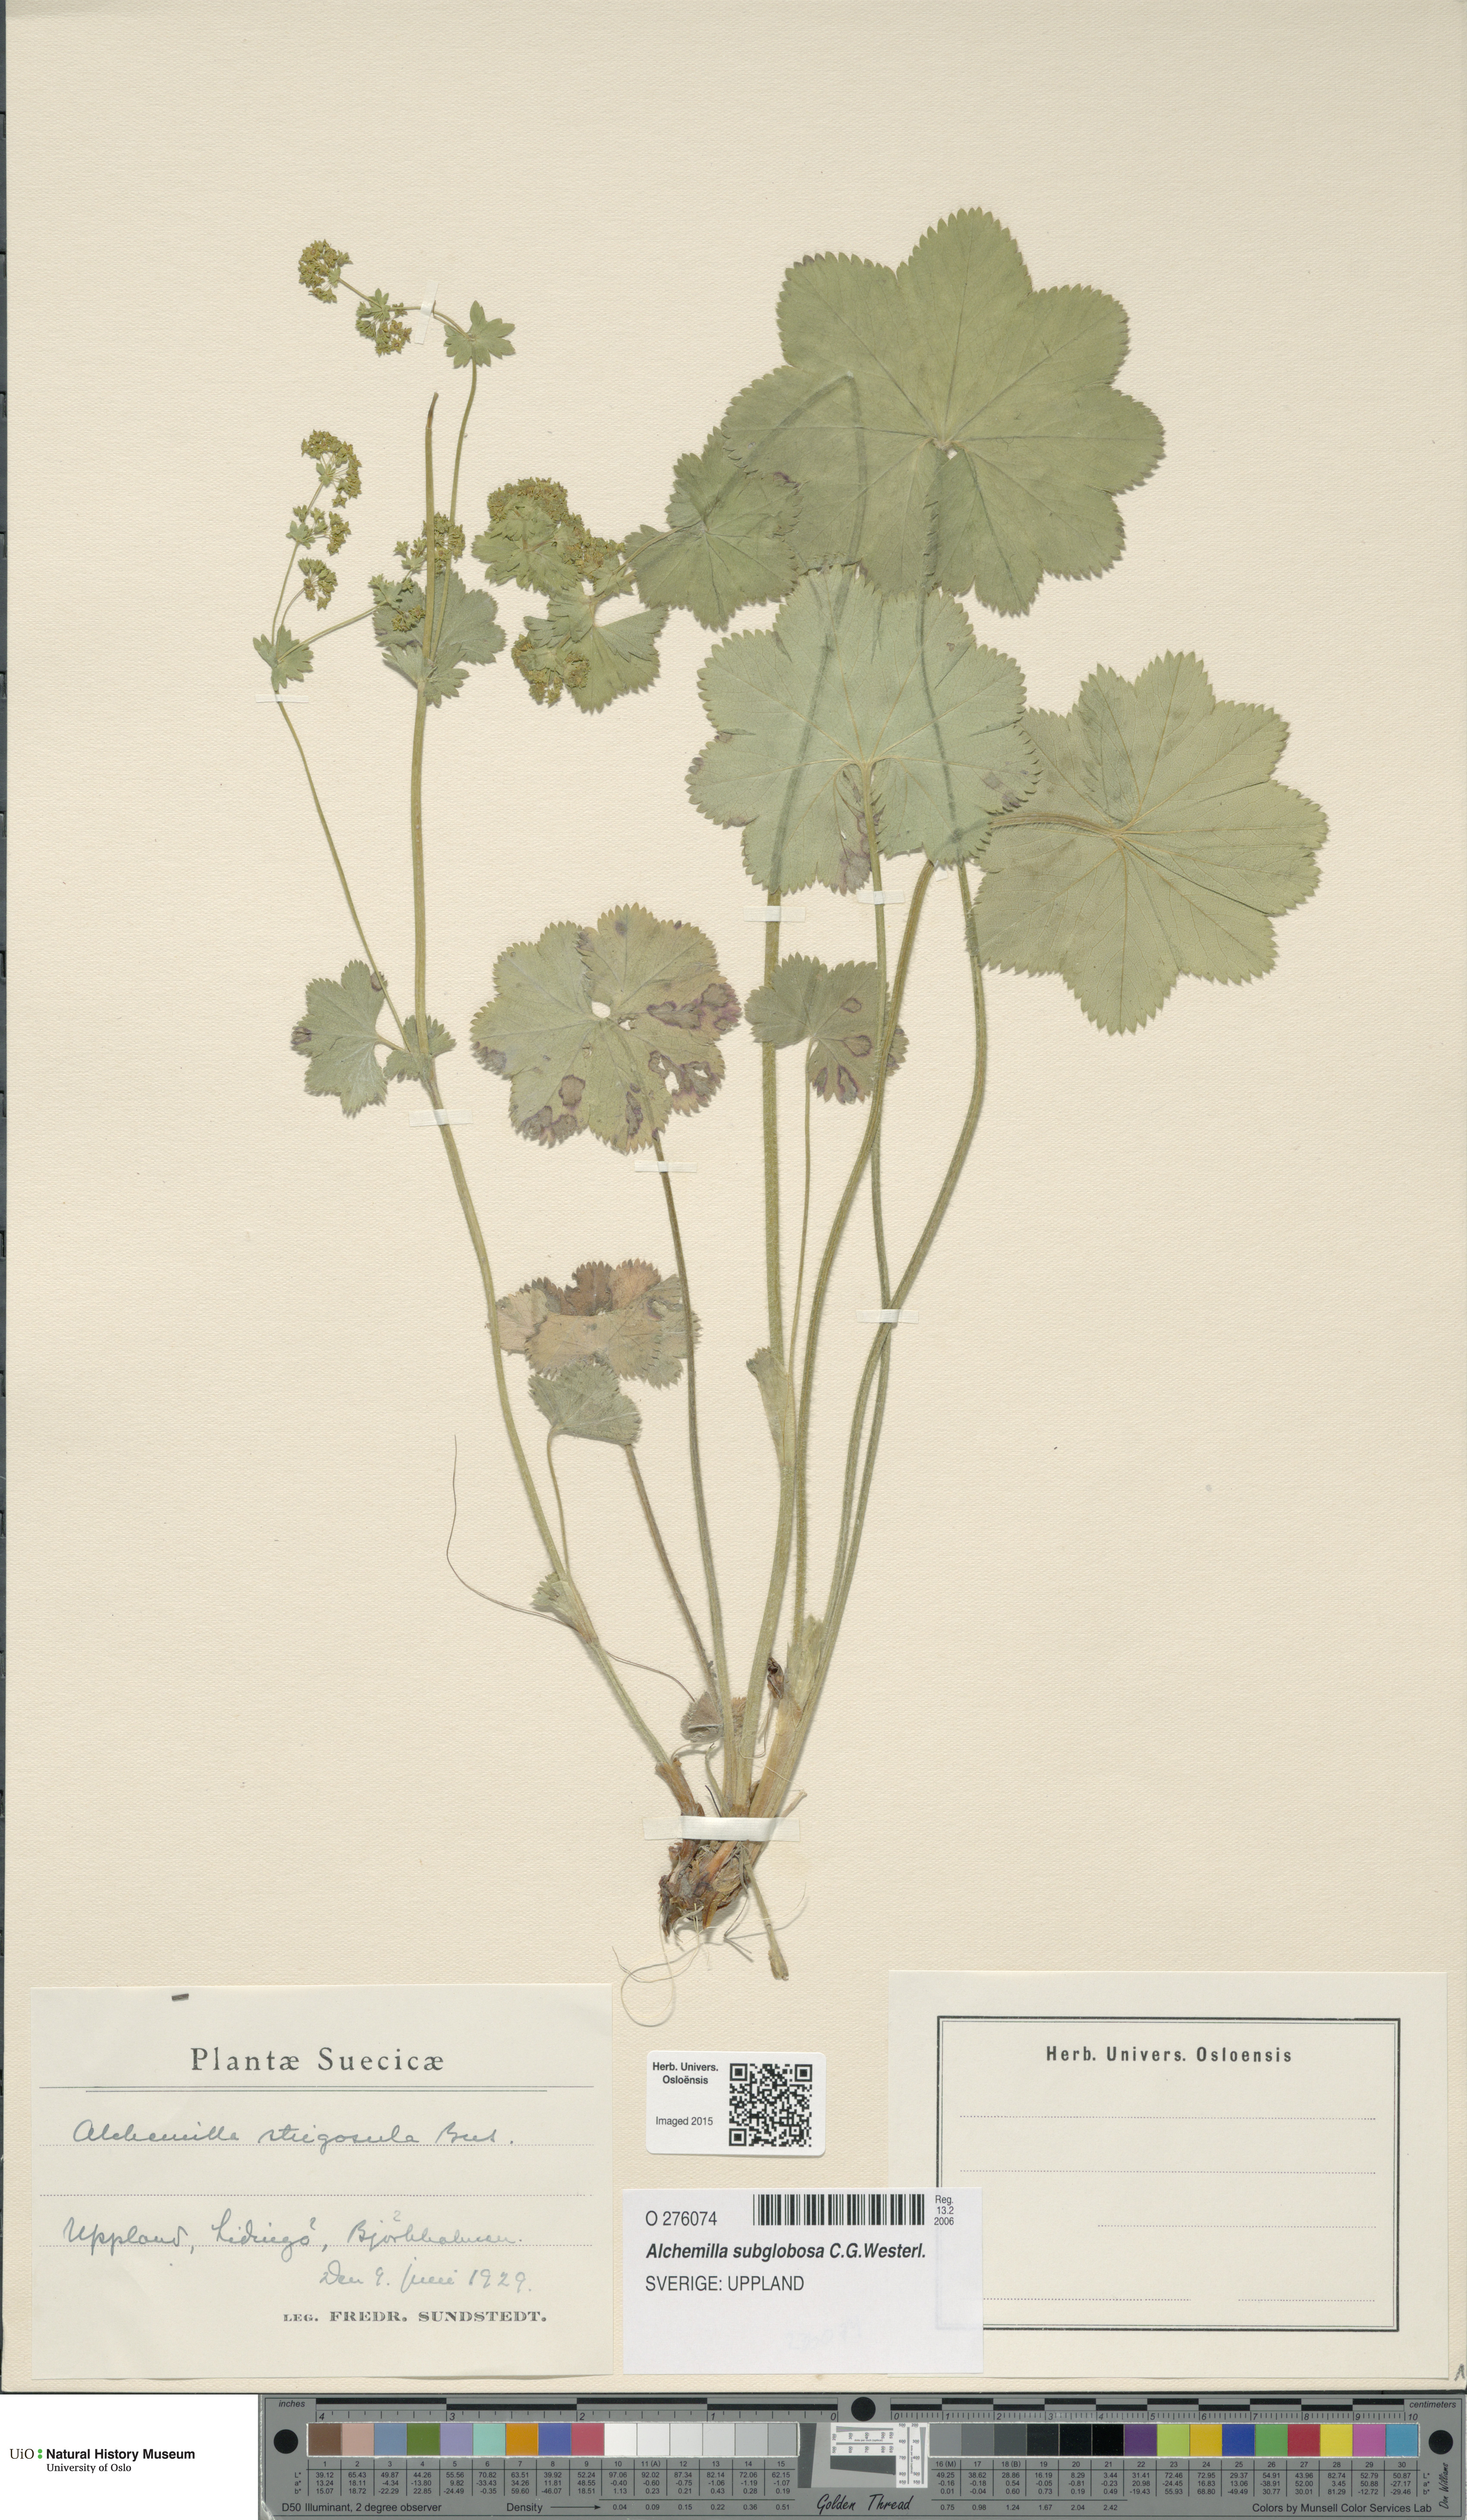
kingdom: Plantae
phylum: Tracheophyta
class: Magnoliopsida
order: Rosales
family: Rosaceae
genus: Alchemilla
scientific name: Alchemilla strigosula
